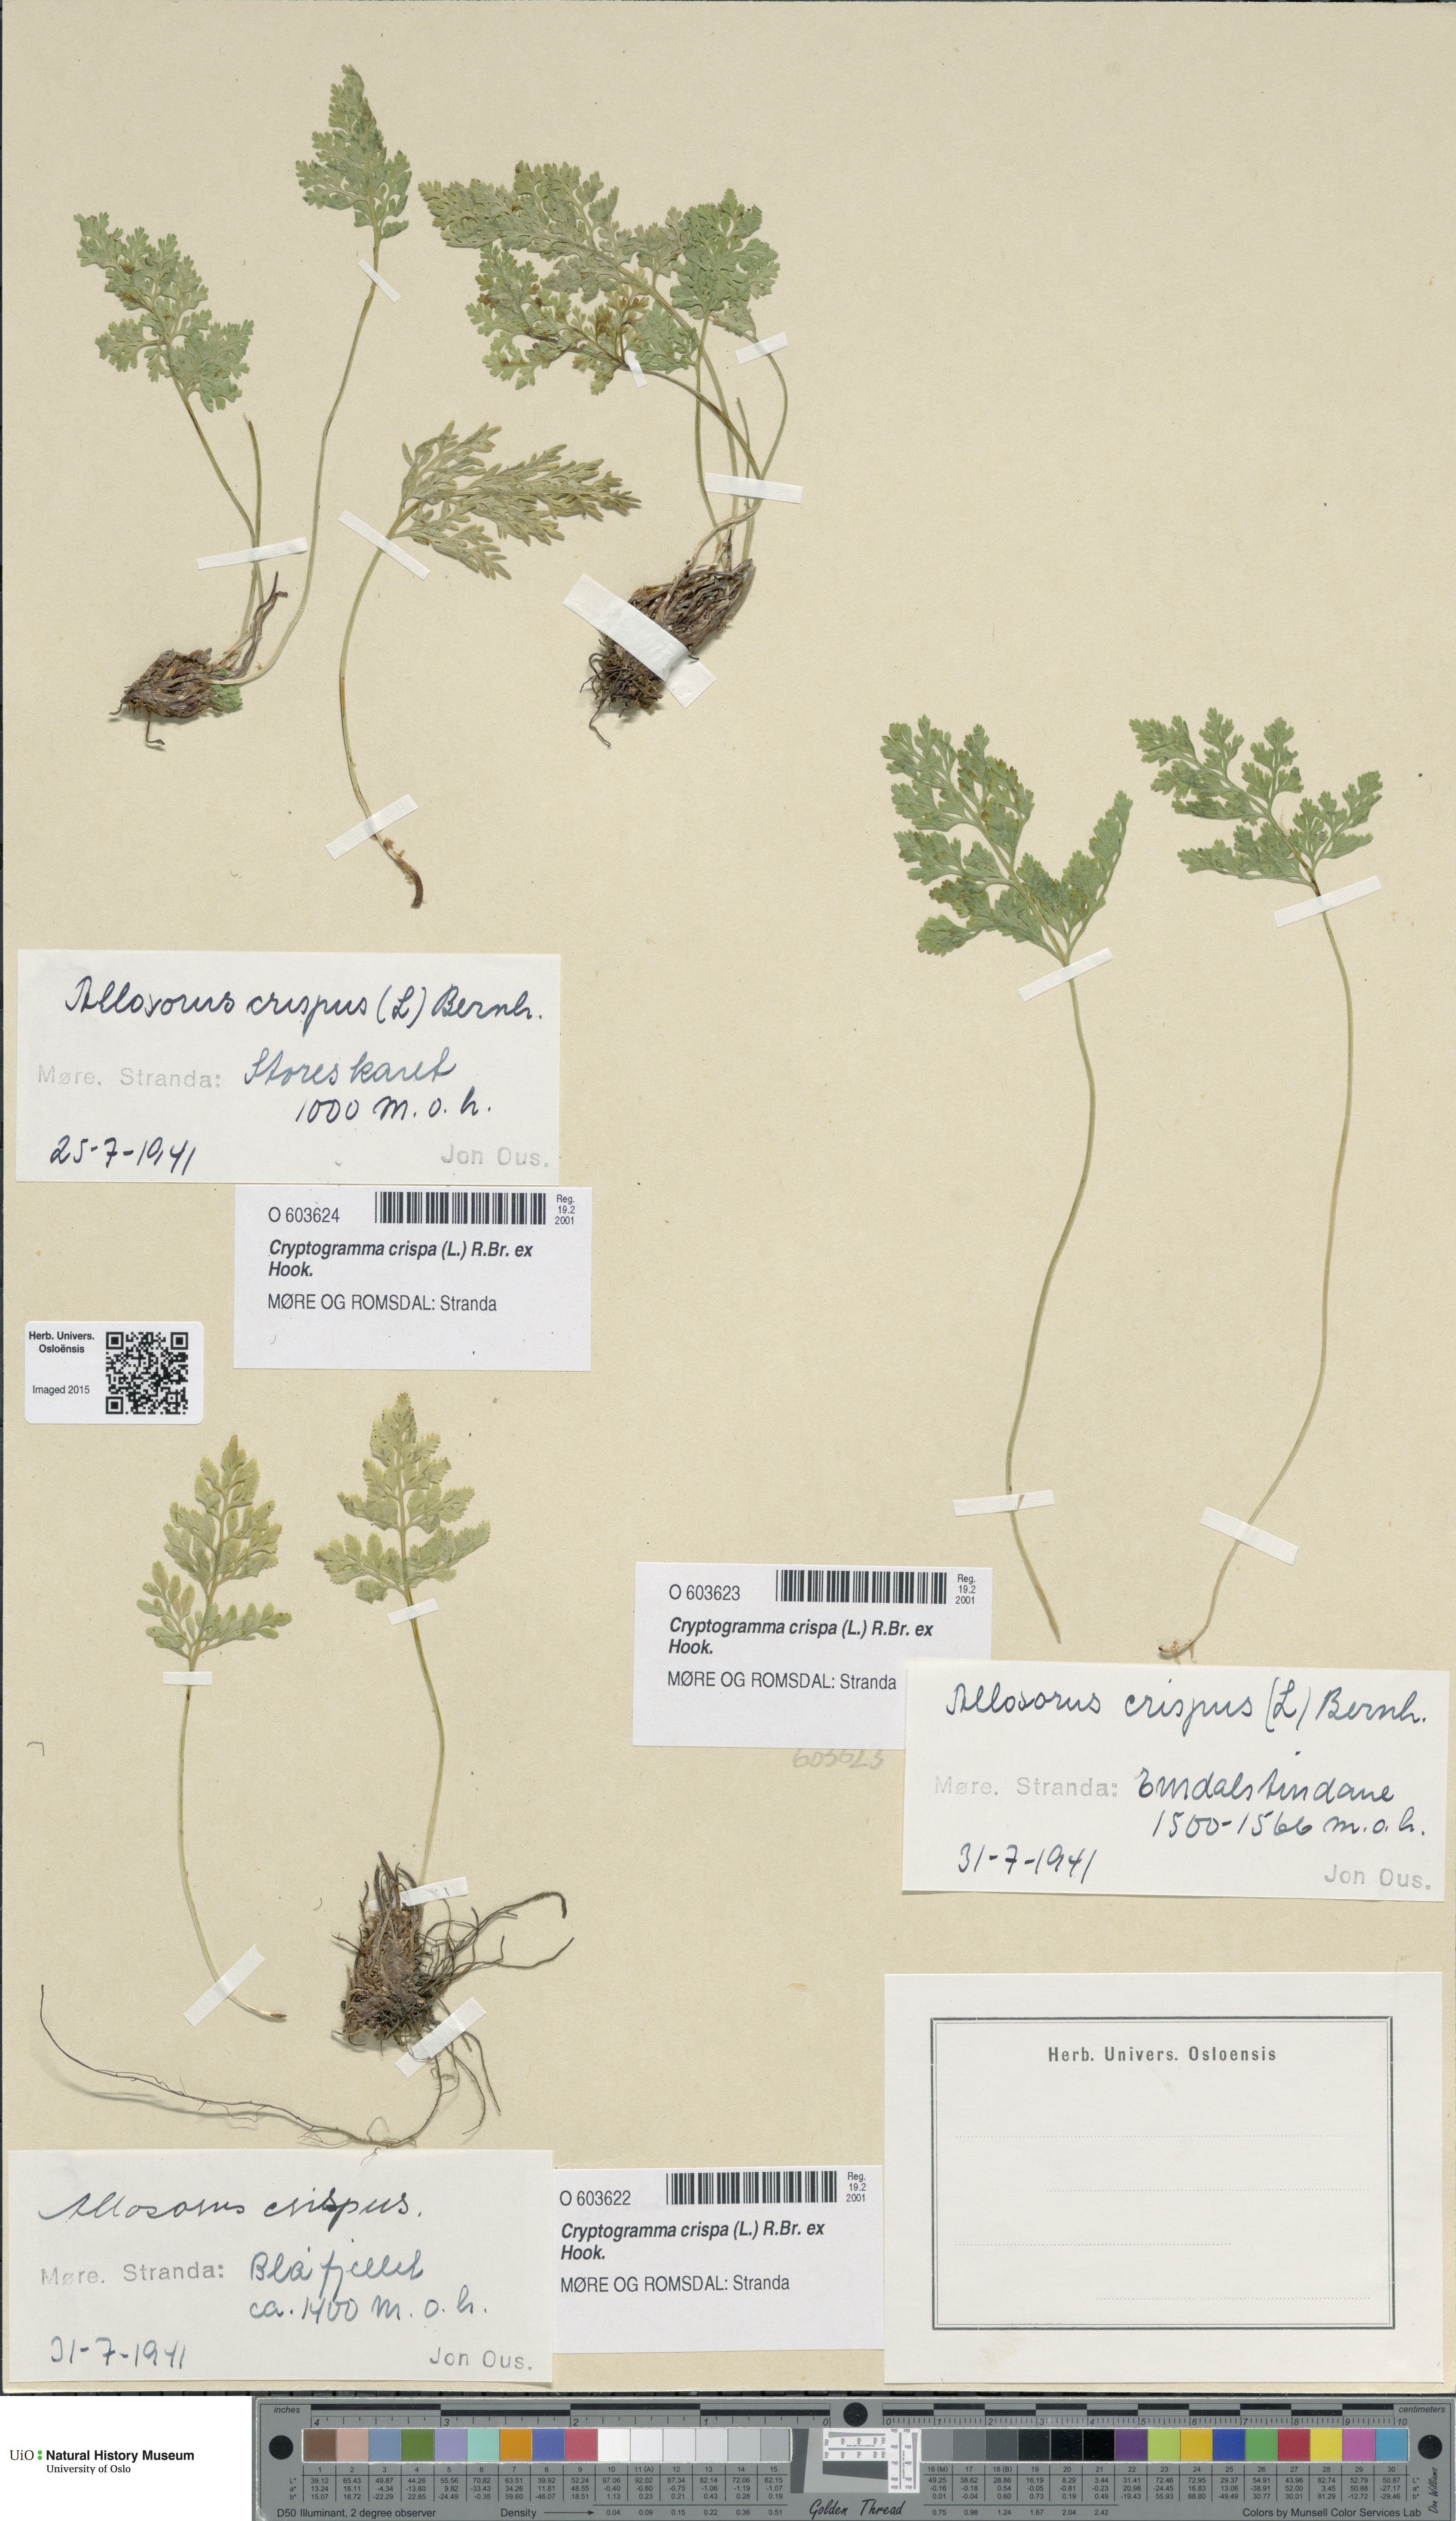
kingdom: Plantae
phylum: Tracheophyta
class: Polypodiopsida
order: Polypodiales
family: Pteridaceae
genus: Cryptogramma
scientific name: Cryptogramma crispa
